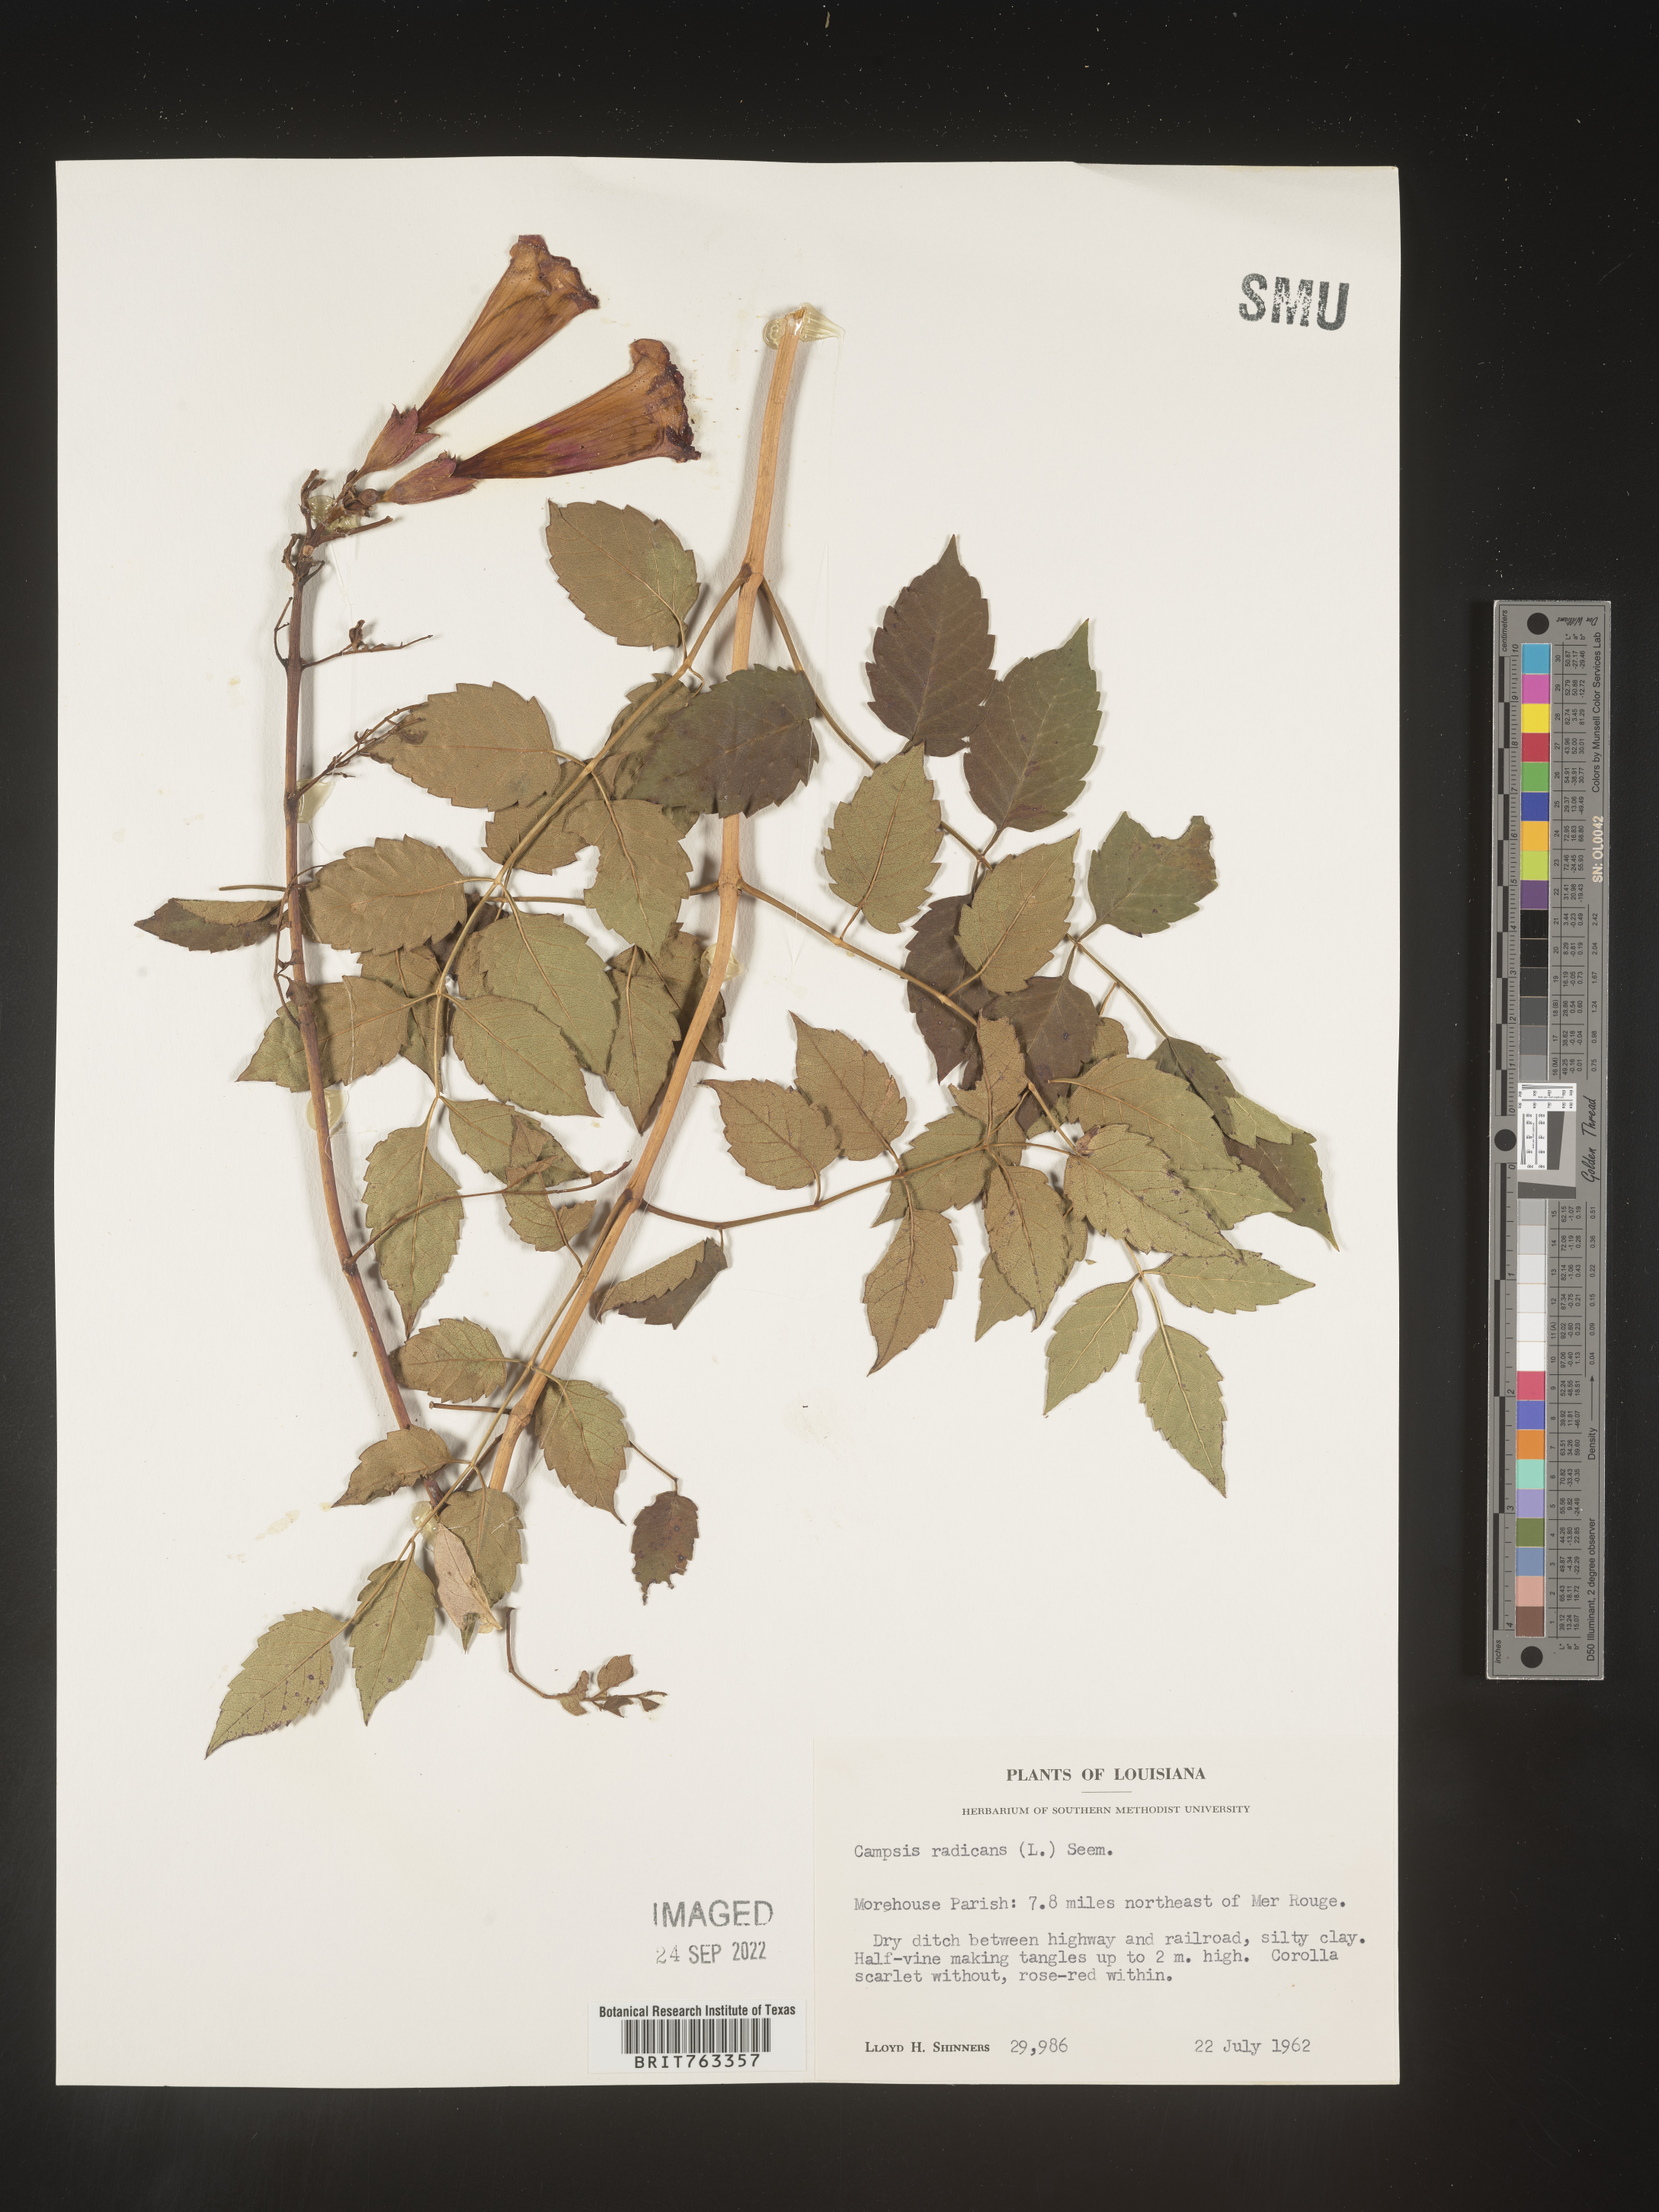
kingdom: Plantae
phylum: Tracheophyta
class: Magnoliopsida
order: Lamiales
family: Bignoniaceae
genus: Campsis
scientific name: Campsis radicans
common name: Trumpet-creeper
